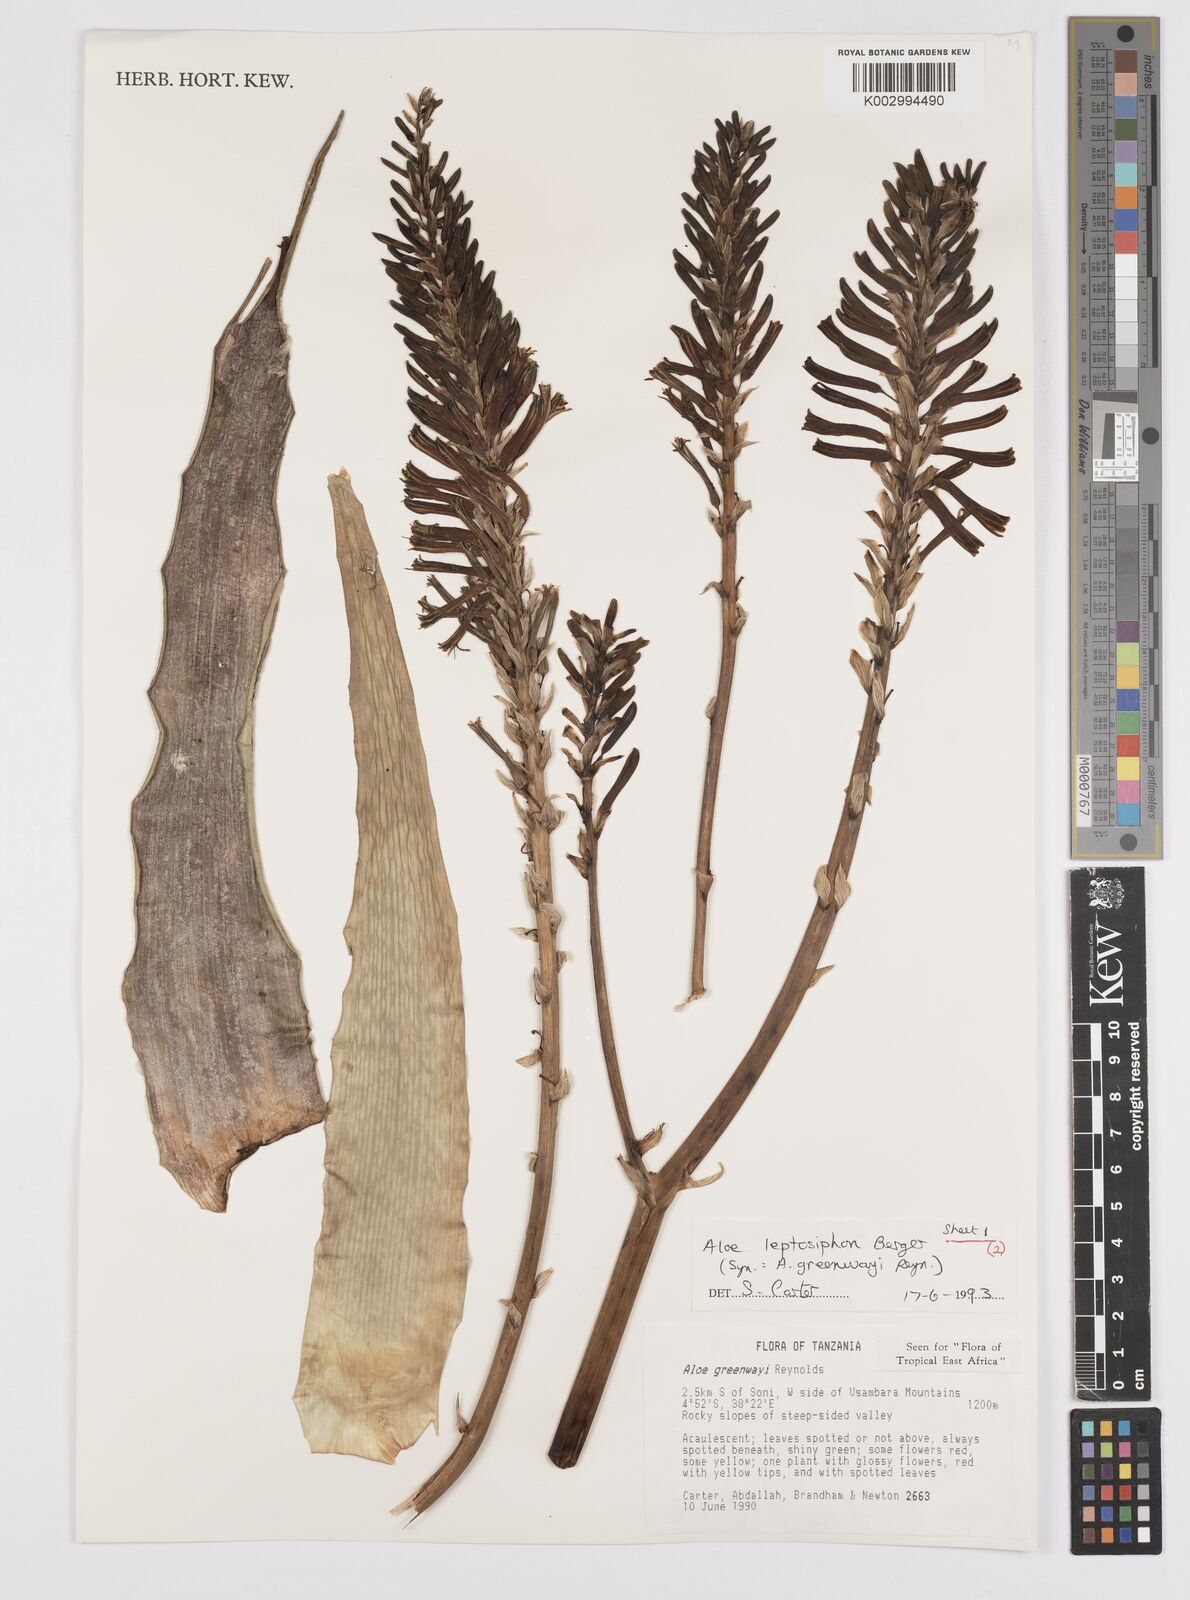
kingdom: Plantae
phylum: Tracheophyta
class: Liliopsida
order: Asparagales
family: Asphodelaceae
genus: Aloe
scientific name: Aloe leptosiphon
